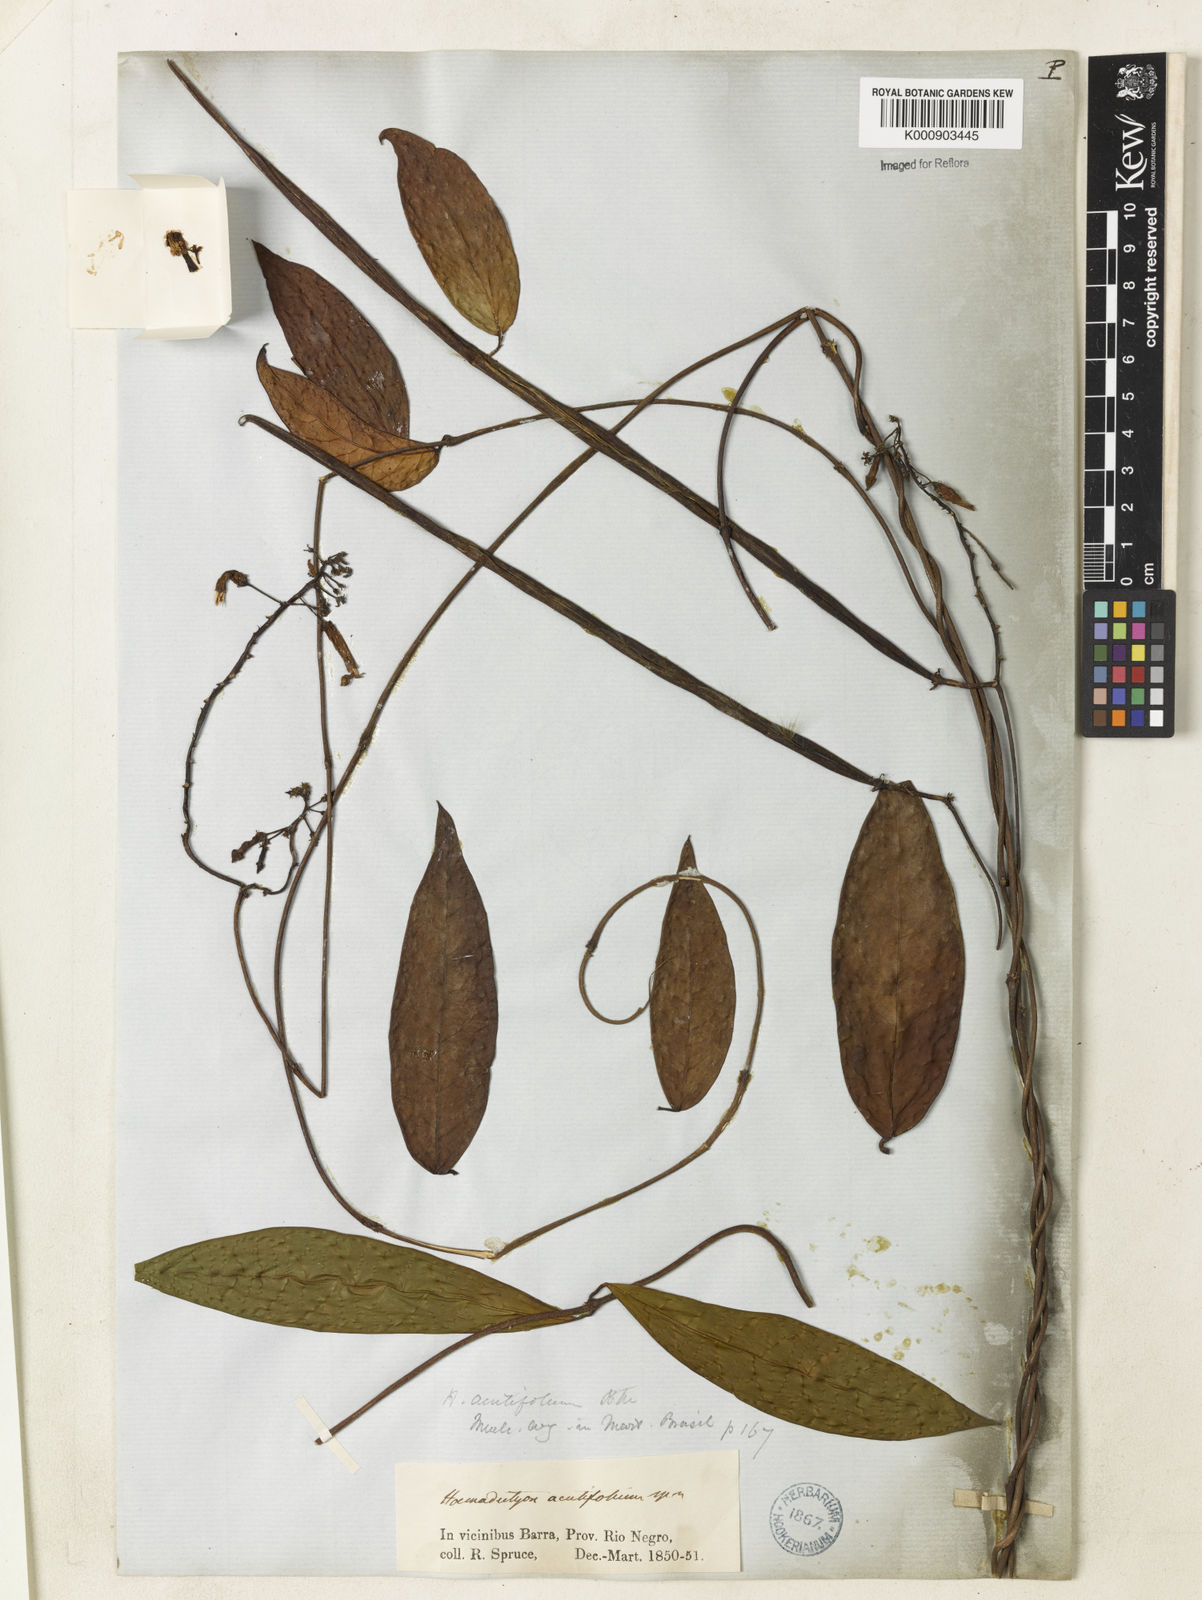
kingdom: Plantae
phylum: Tracheophyta
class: Magnoliopsida
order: Gentianales
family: Apocynaceae
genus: Prestonia
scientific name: Prestonia
